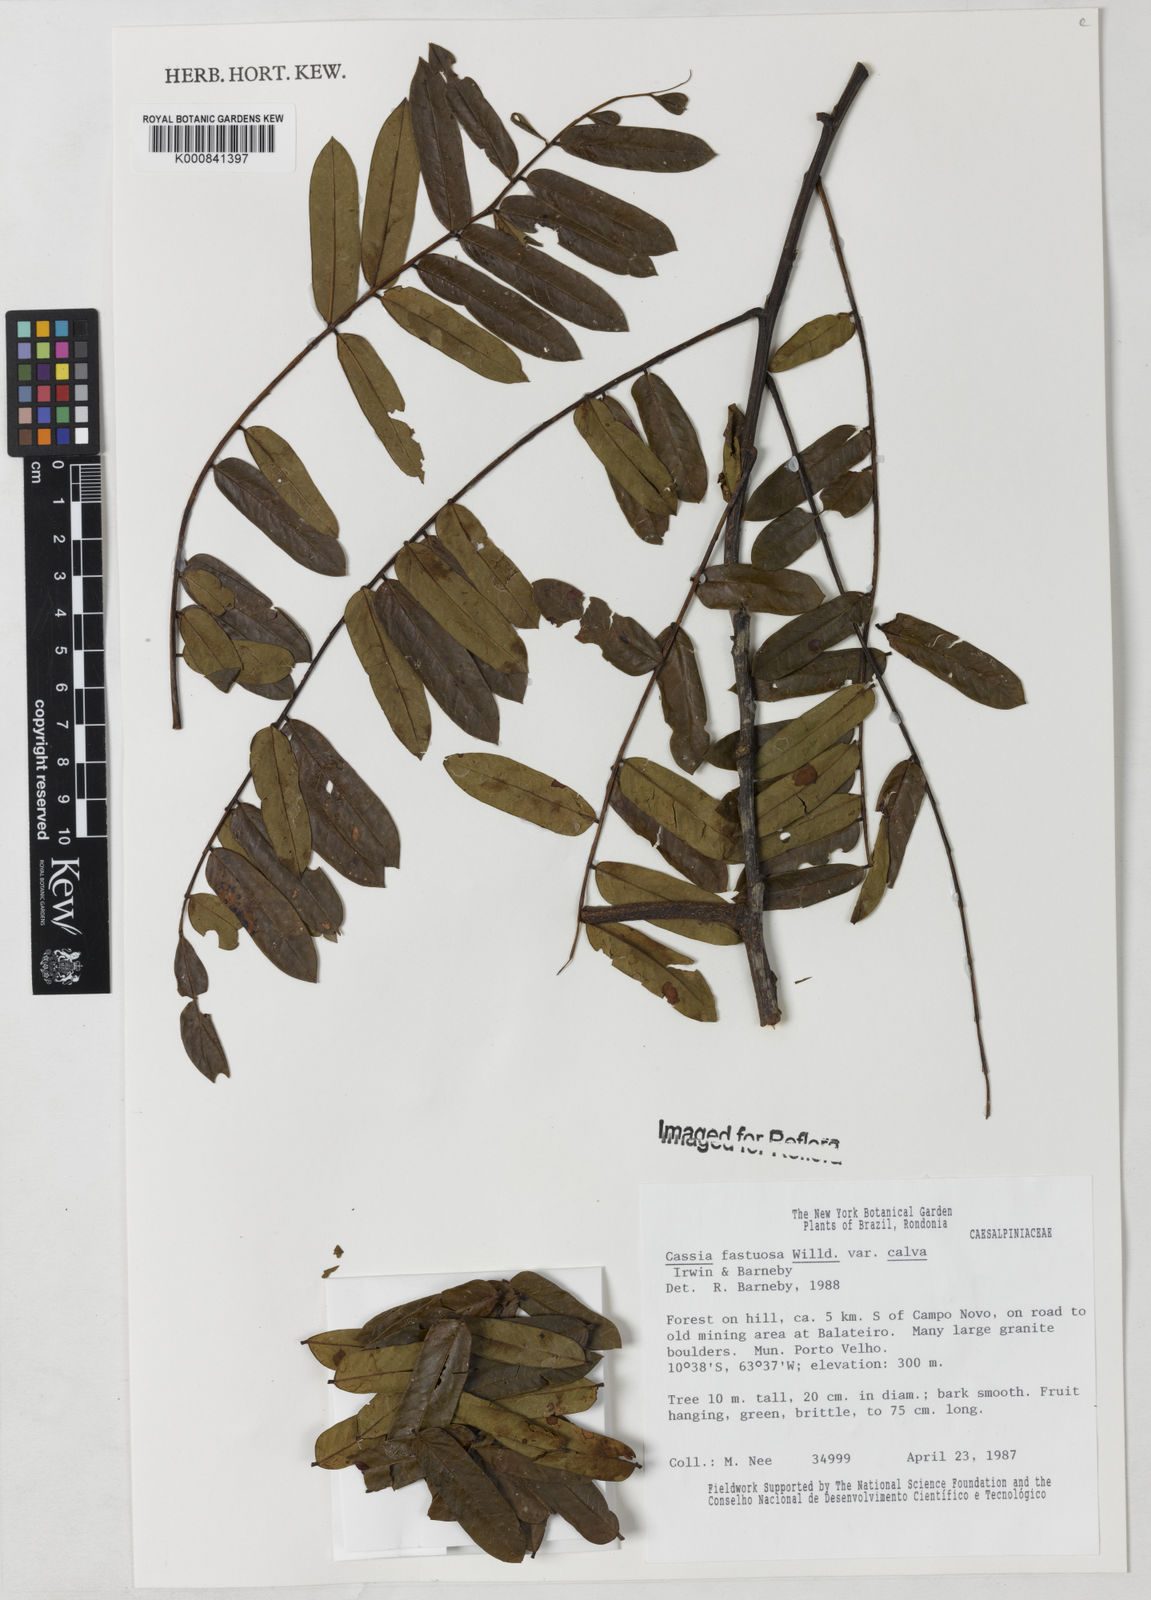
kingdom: Plantae
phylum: Tracheophyta
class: Magnoliopsida
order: Fabales
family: Fabaceae
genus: Cassia
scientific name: Cassia fastuosa
